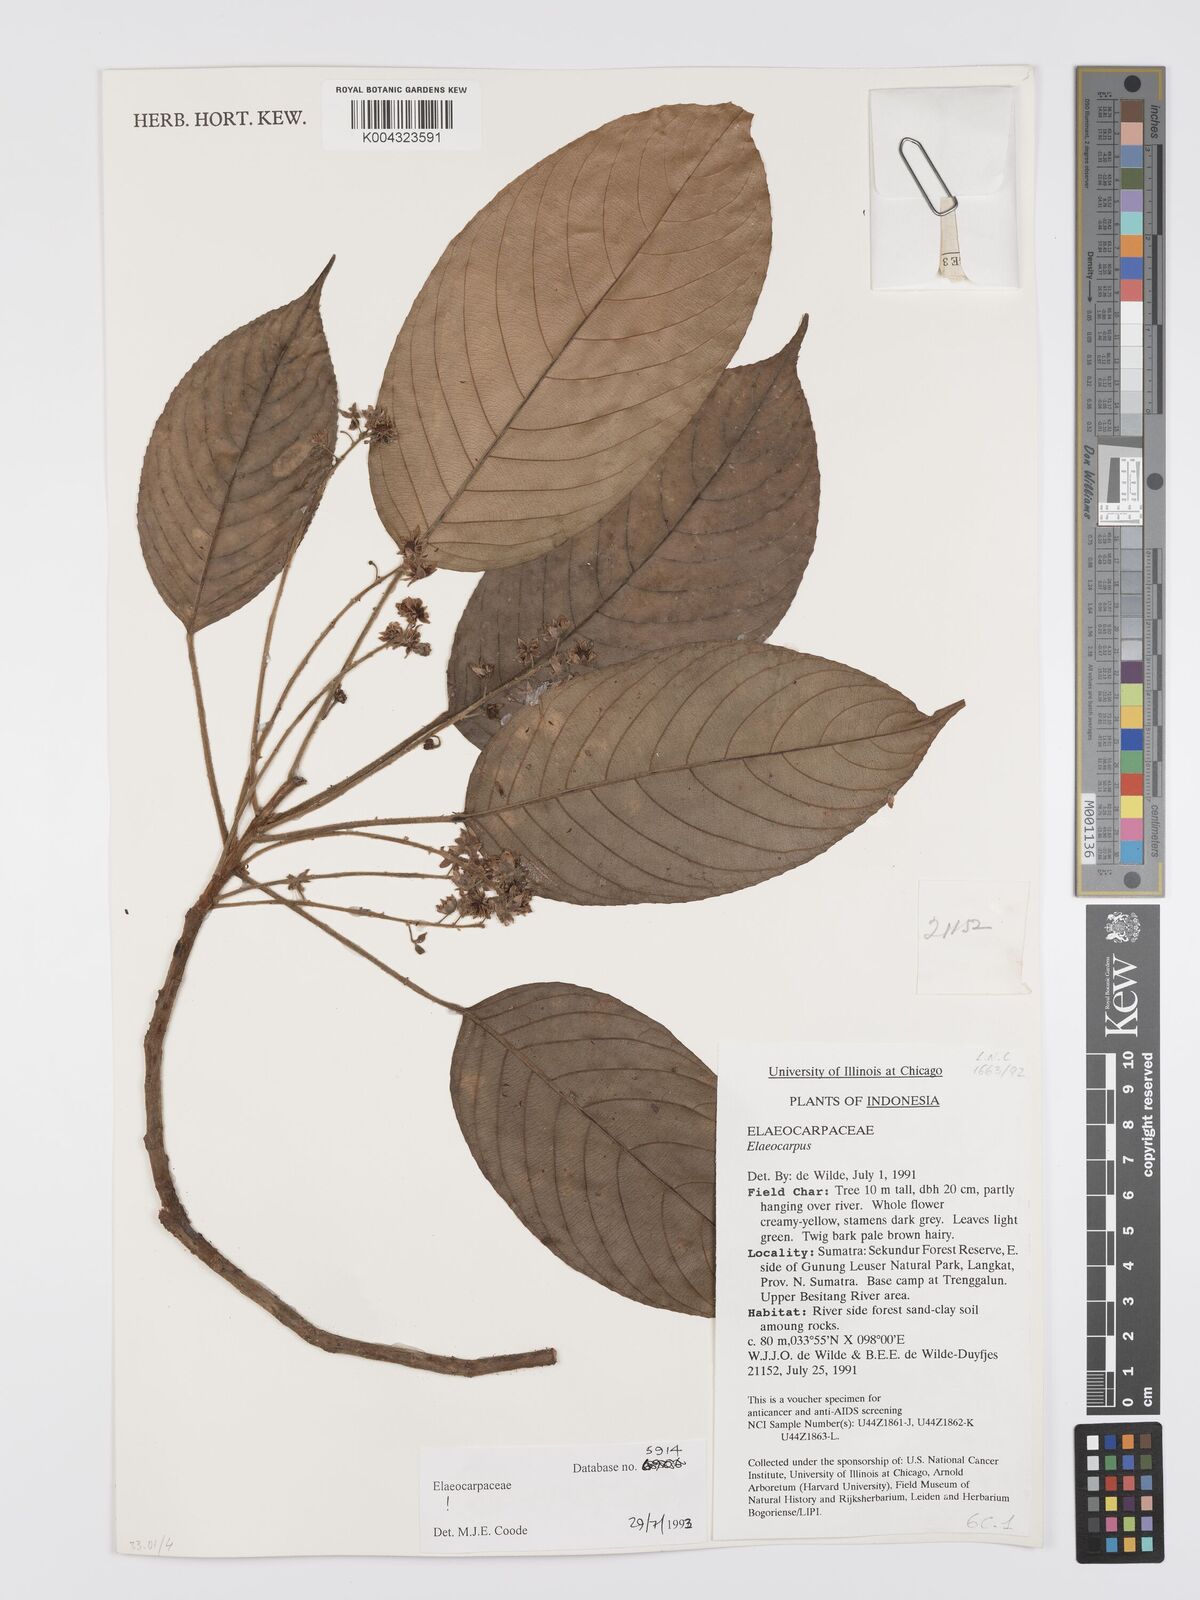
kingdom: Plantae
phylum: Tracheophyta
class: Magnoliopsida
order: Oxalidales
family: Elaeocarpaceae
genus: Elaeocarpus
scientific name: Elaeocarpus cupreus
